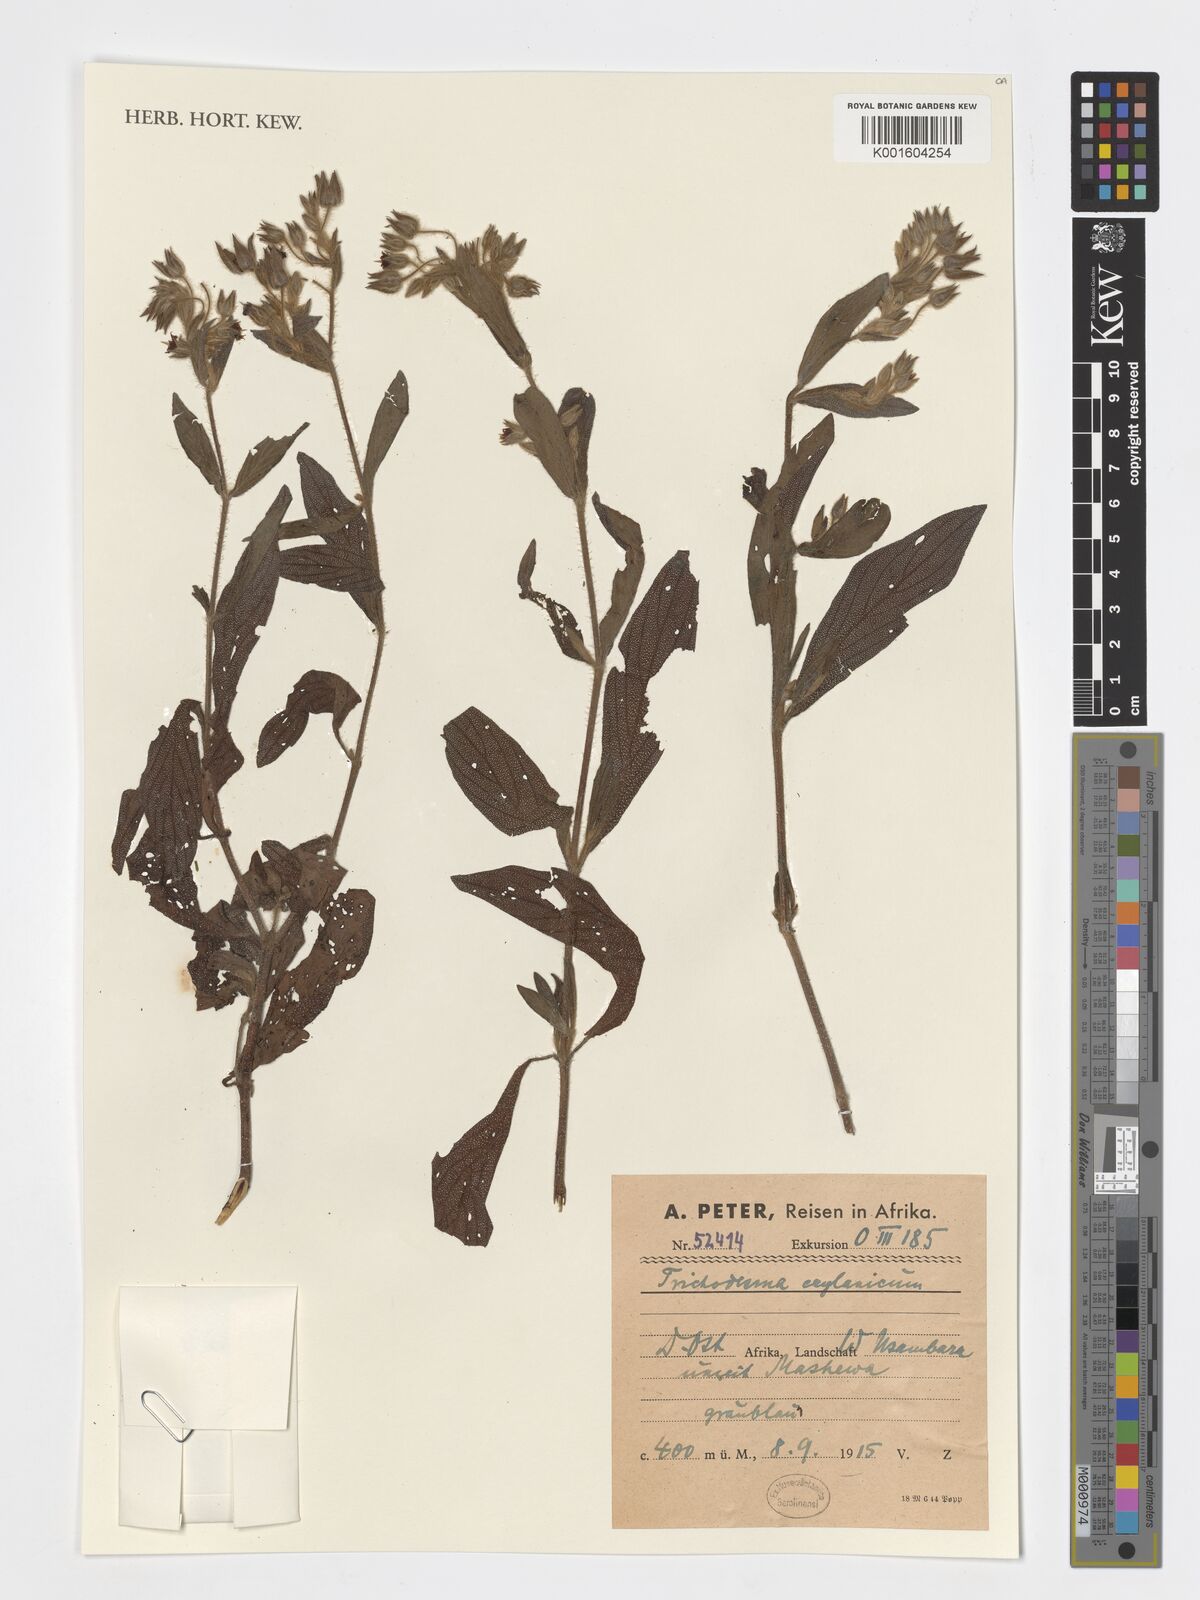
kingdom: Plantae
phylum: Tracheophyta
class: Magnoliopsida
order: Boraginales
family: Boraginaceae
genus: Trichodesma
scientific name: Trichodesma zeylanicum
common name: Camelbush
